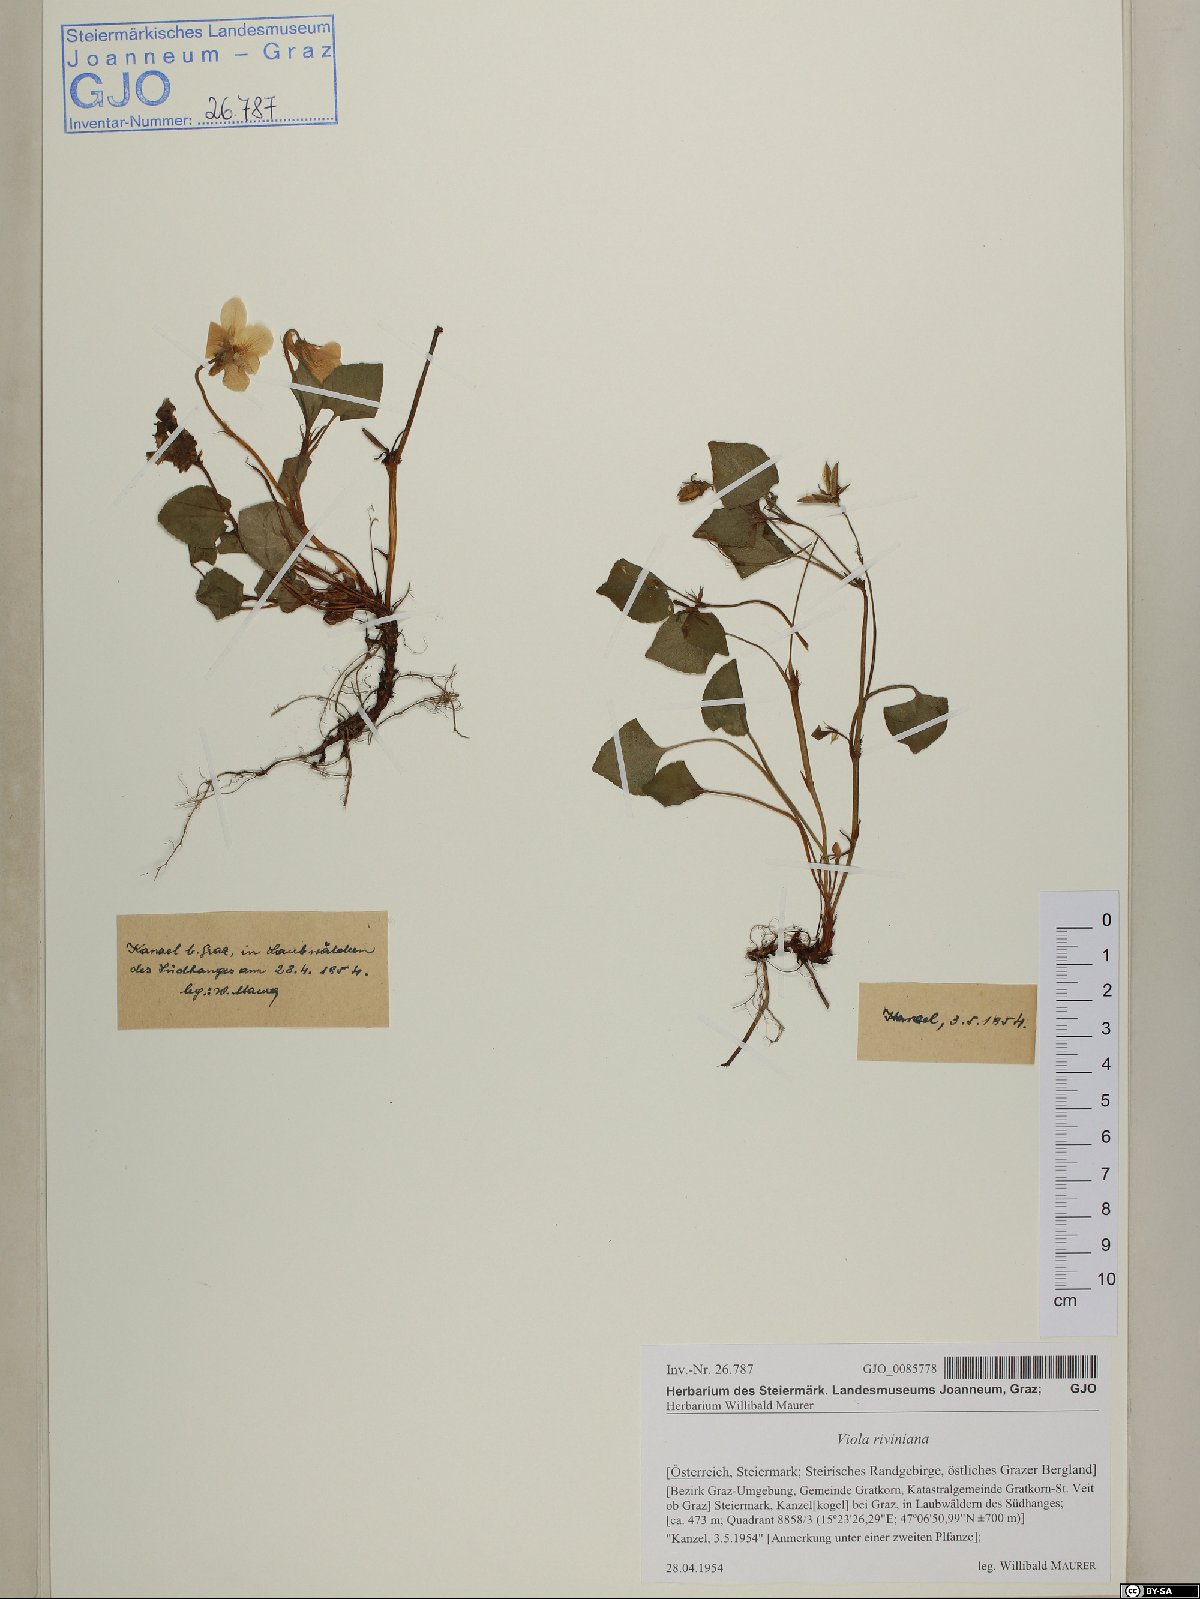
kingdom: Plantae
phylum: Tracheophyta
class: Magnoliopsida
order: Malpighiales
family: Violaceae
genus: Viola
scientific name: Viola riviniana
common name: Common dog-violet
